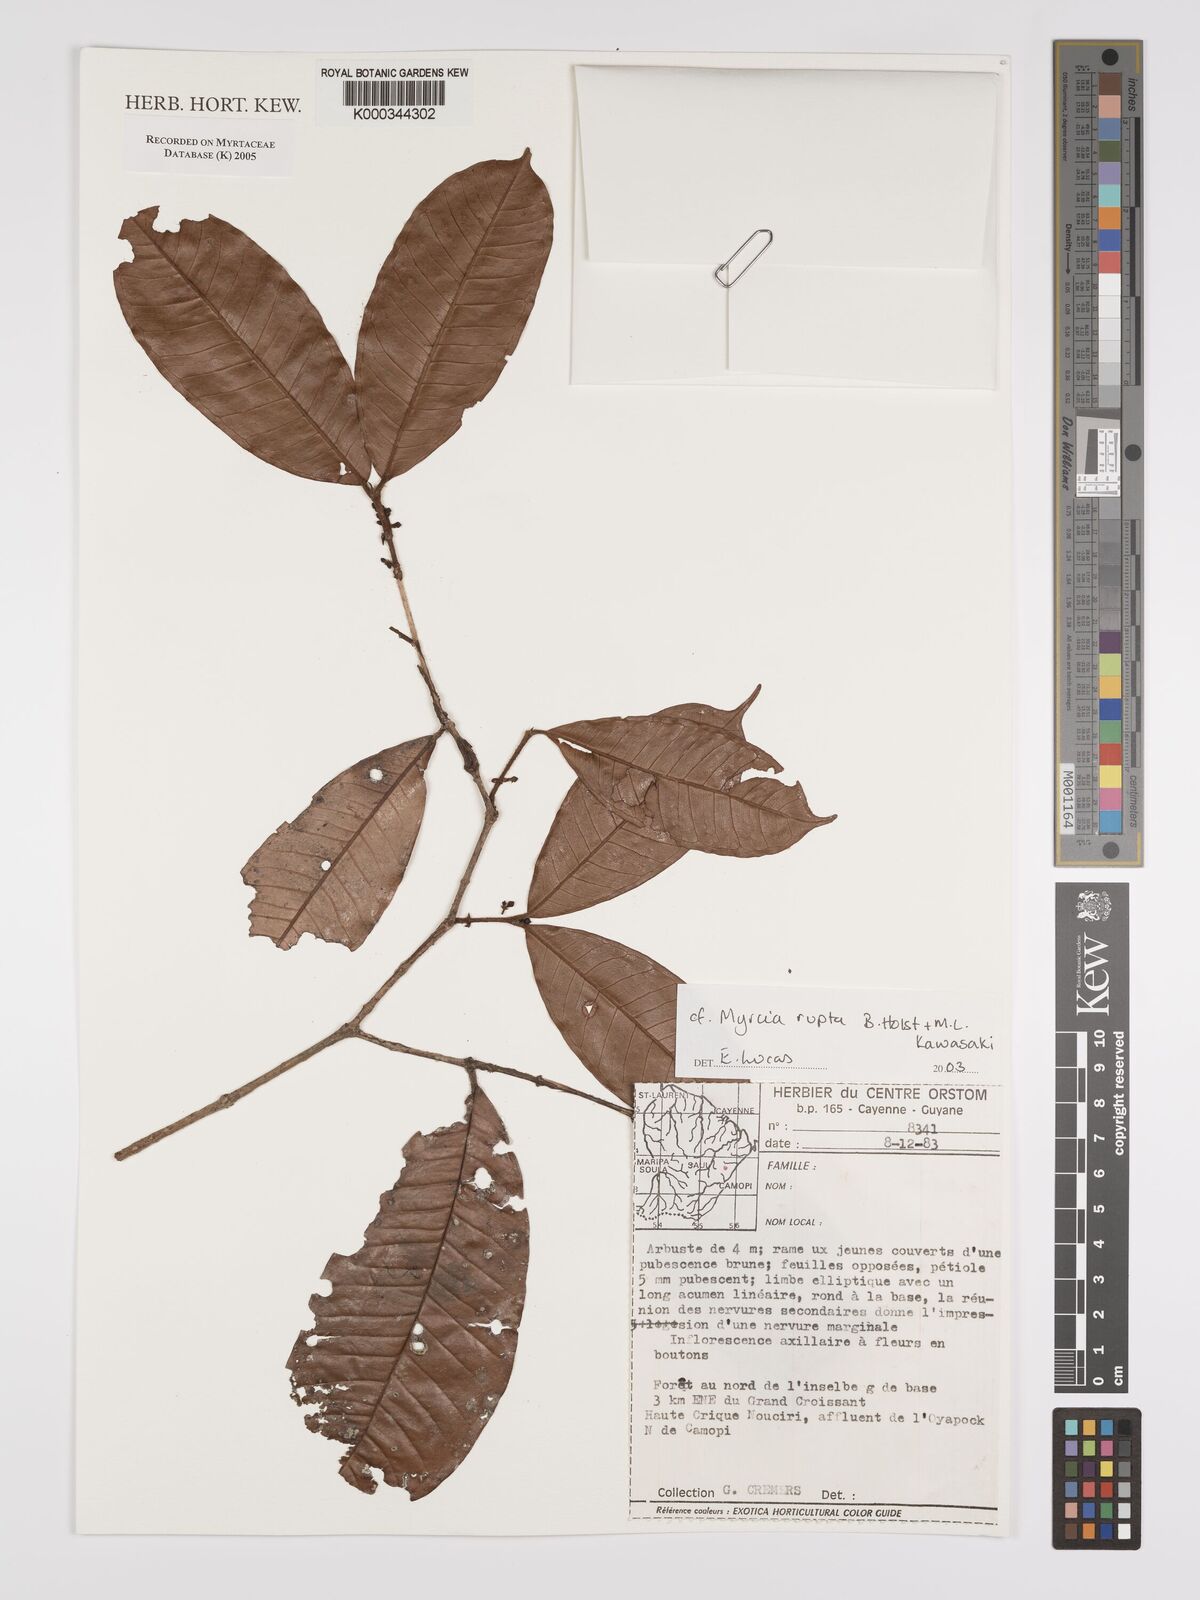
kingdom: Plantae
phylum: Tracheophyta
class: Magnoliopsida
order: Myrtales
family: Myrtaceae
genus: Myrcia
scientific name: Myrcia rupta
